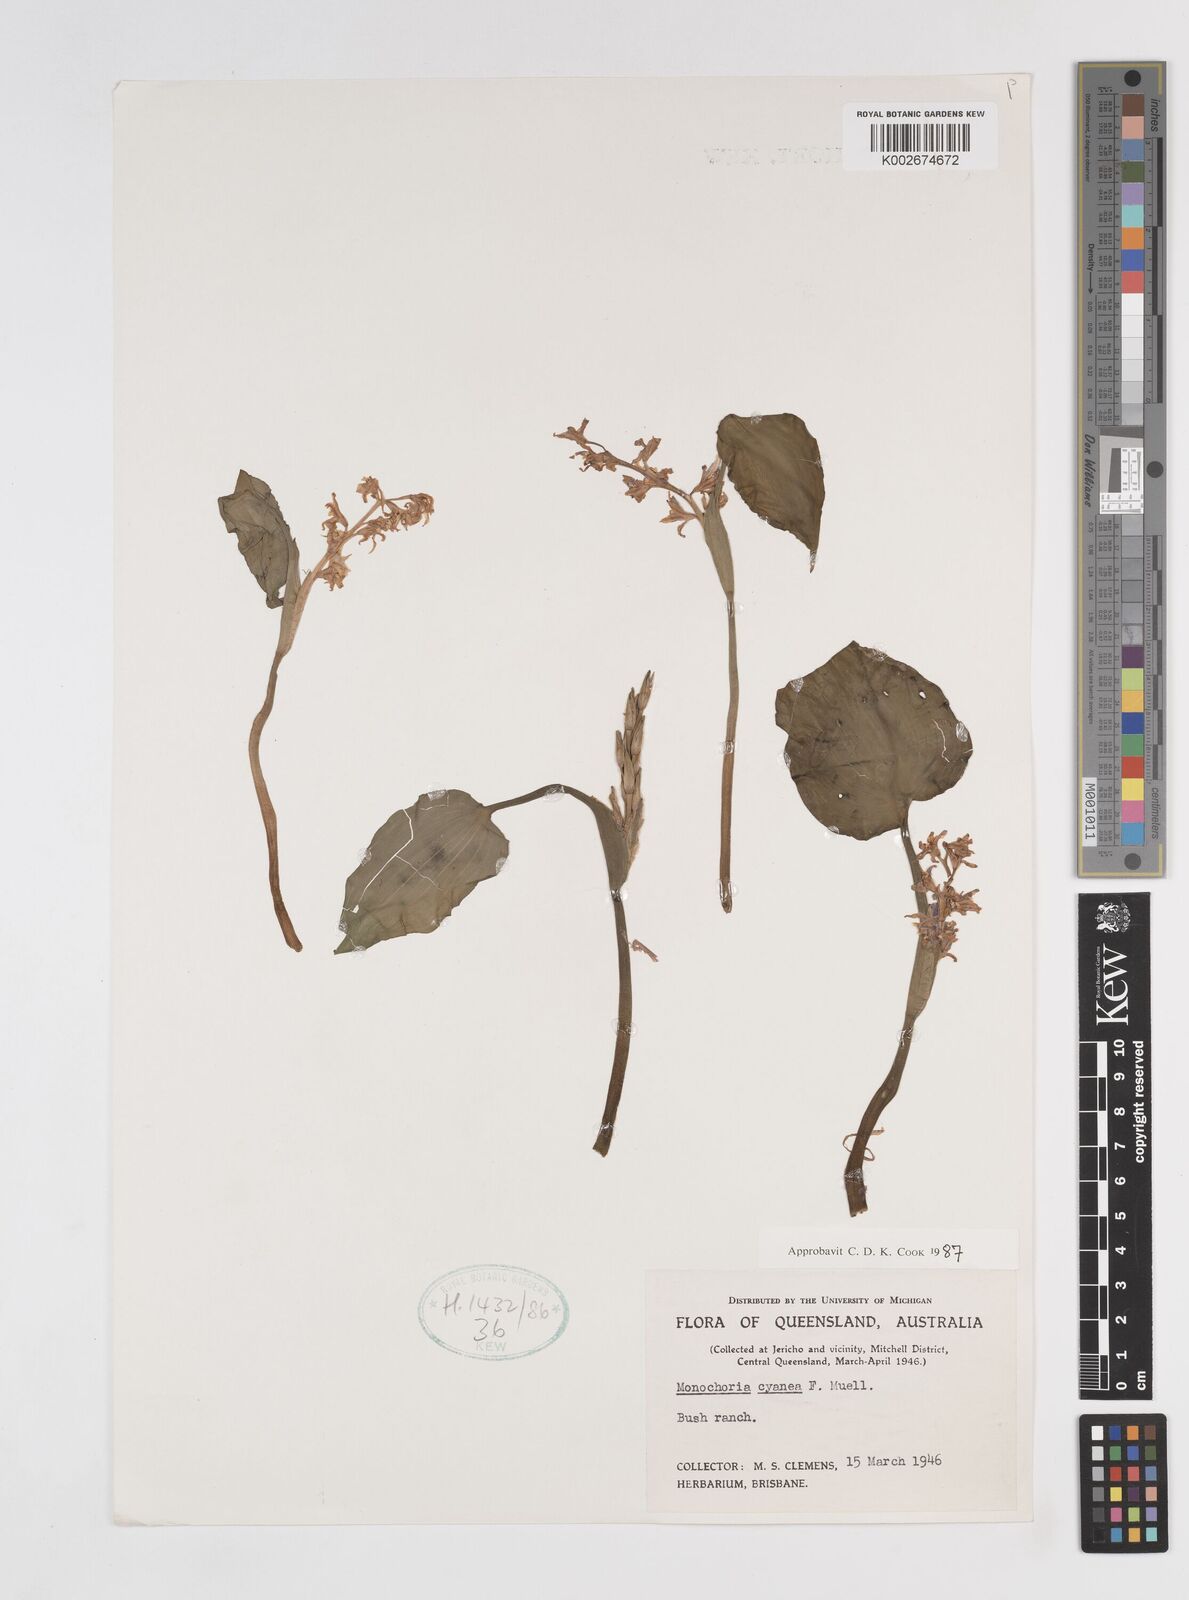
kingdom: Plantae
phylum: Tracheophyta
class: Liliopsida
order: Commelinales
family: Pontederiaceae
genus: Pontederia
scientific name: Pontederia cyanea
